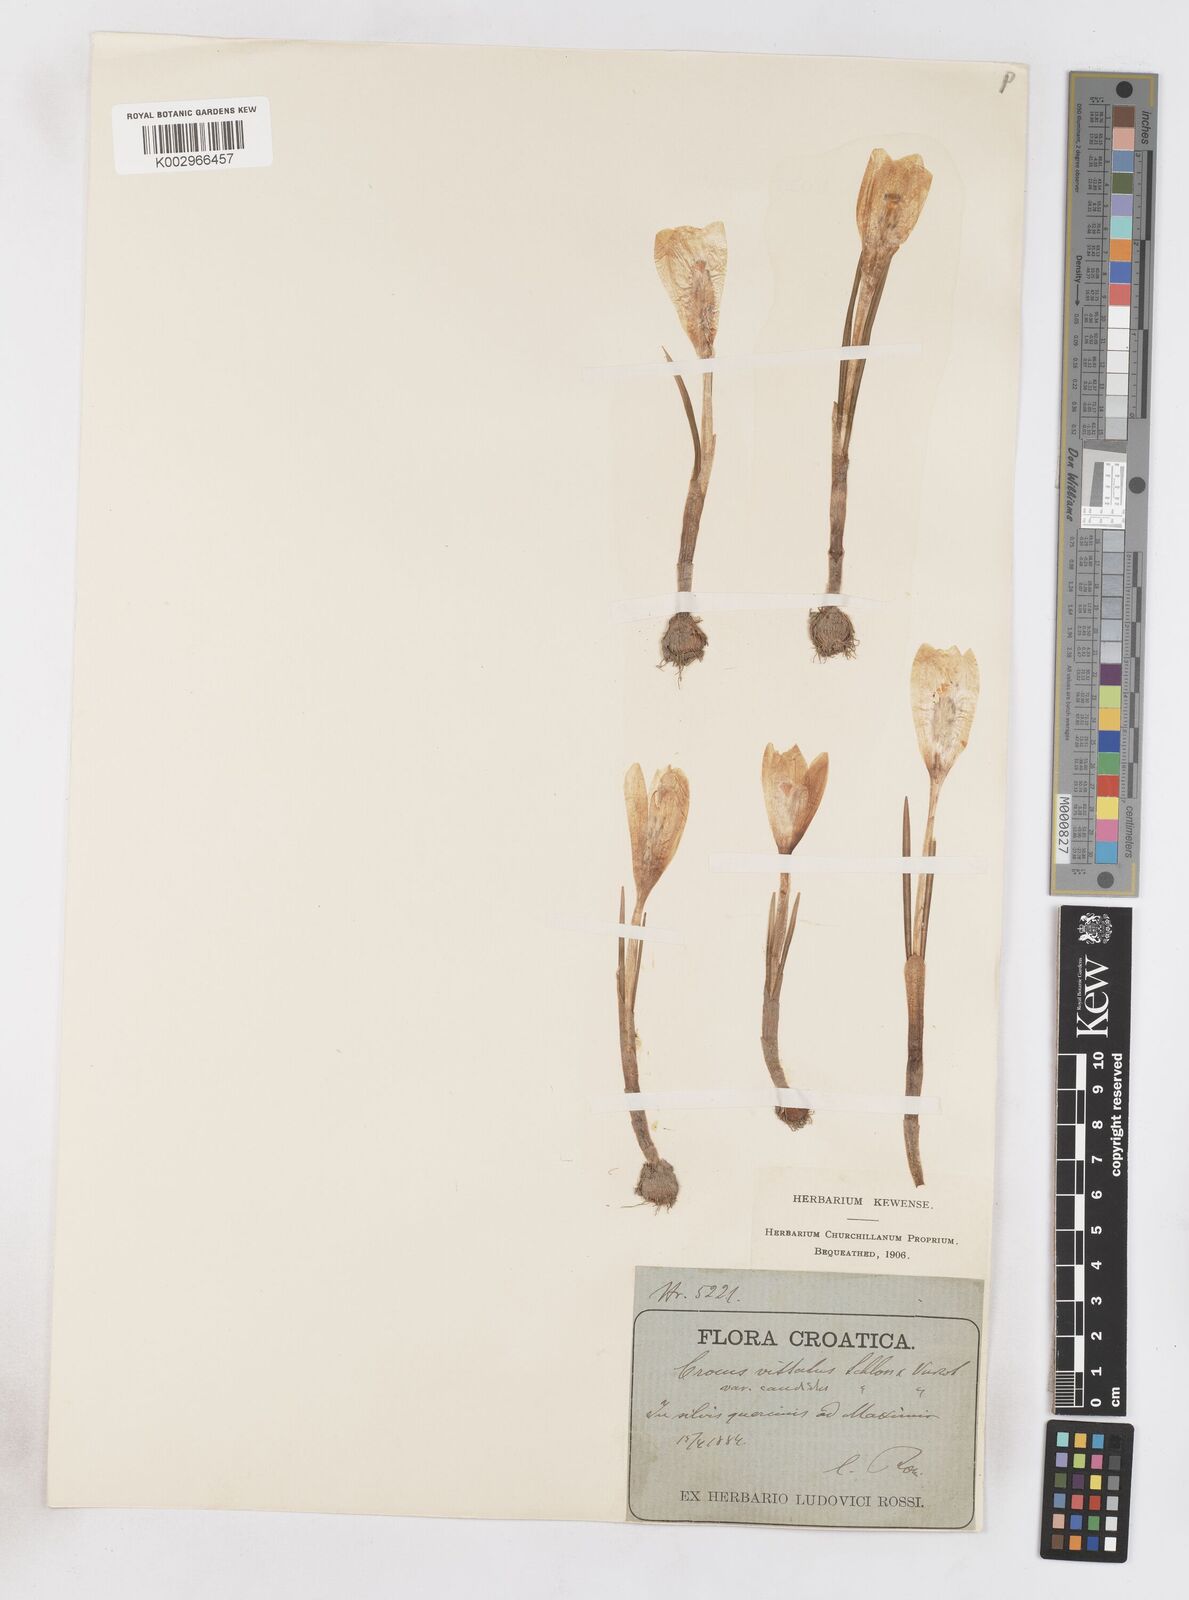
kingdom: Plantae
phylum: Tracheophyta
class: Liliopsida
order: Asparagales
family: Iridaceae
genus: Crocus
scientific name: Crocus vernus
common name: Spring crocus
